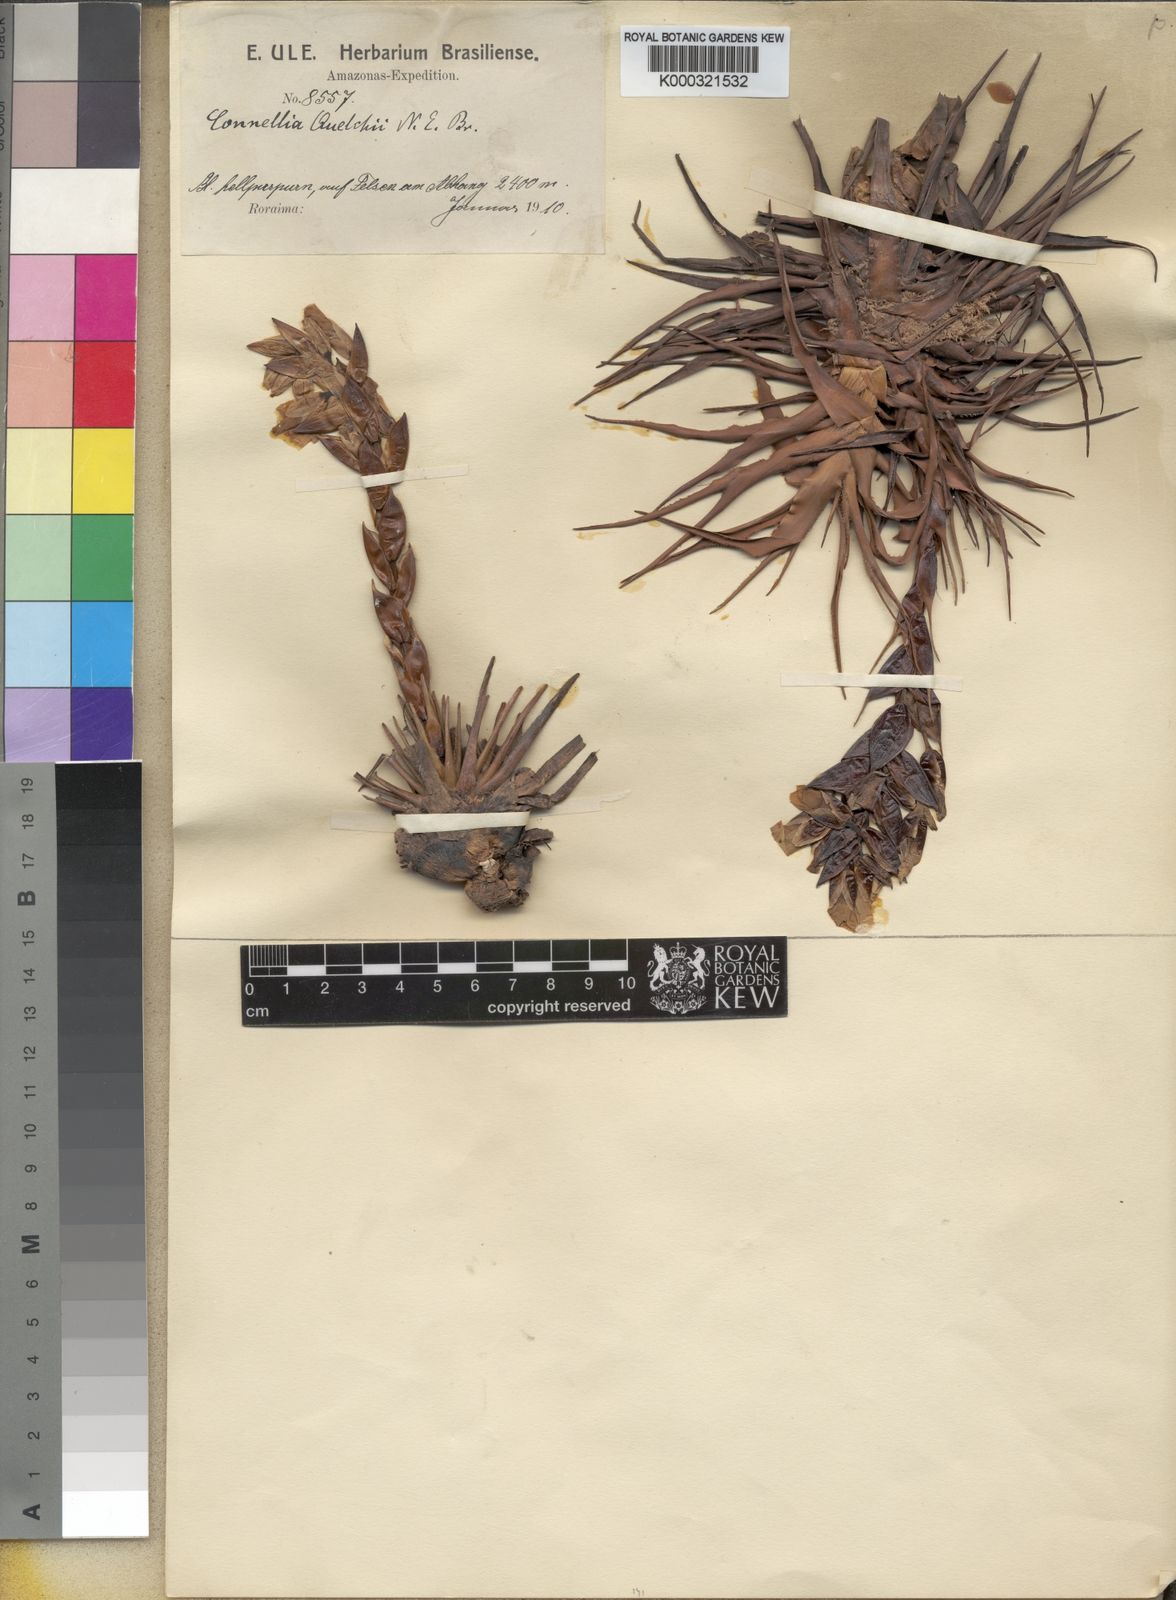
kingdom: Plantae
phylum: Tracheophyta
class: Liliopsida
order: Poales
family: Bromeliaceae
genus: Connellia
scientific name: Connellia quelchii
